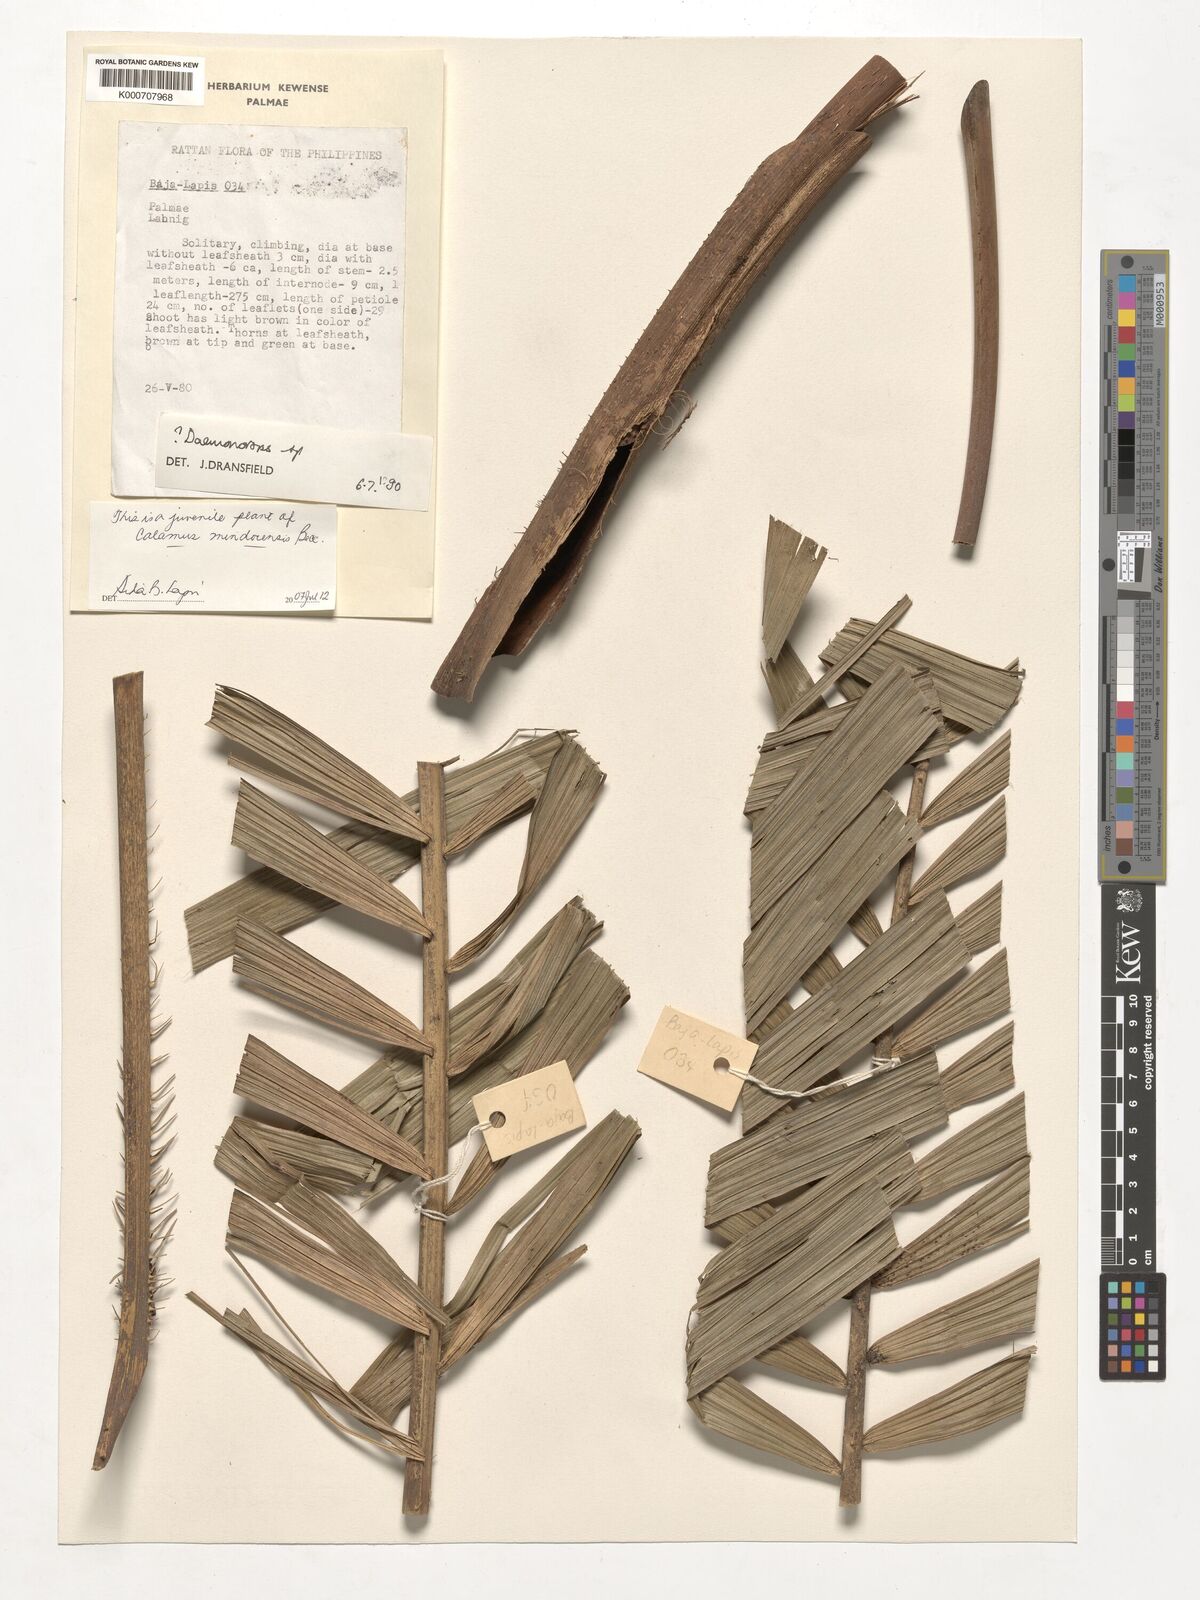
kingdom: Plantae
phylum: Tracheophyta
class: Liliopsida
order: Arecales
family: Arecaceae
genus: Calamus
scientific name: Calamus moseleyanus
